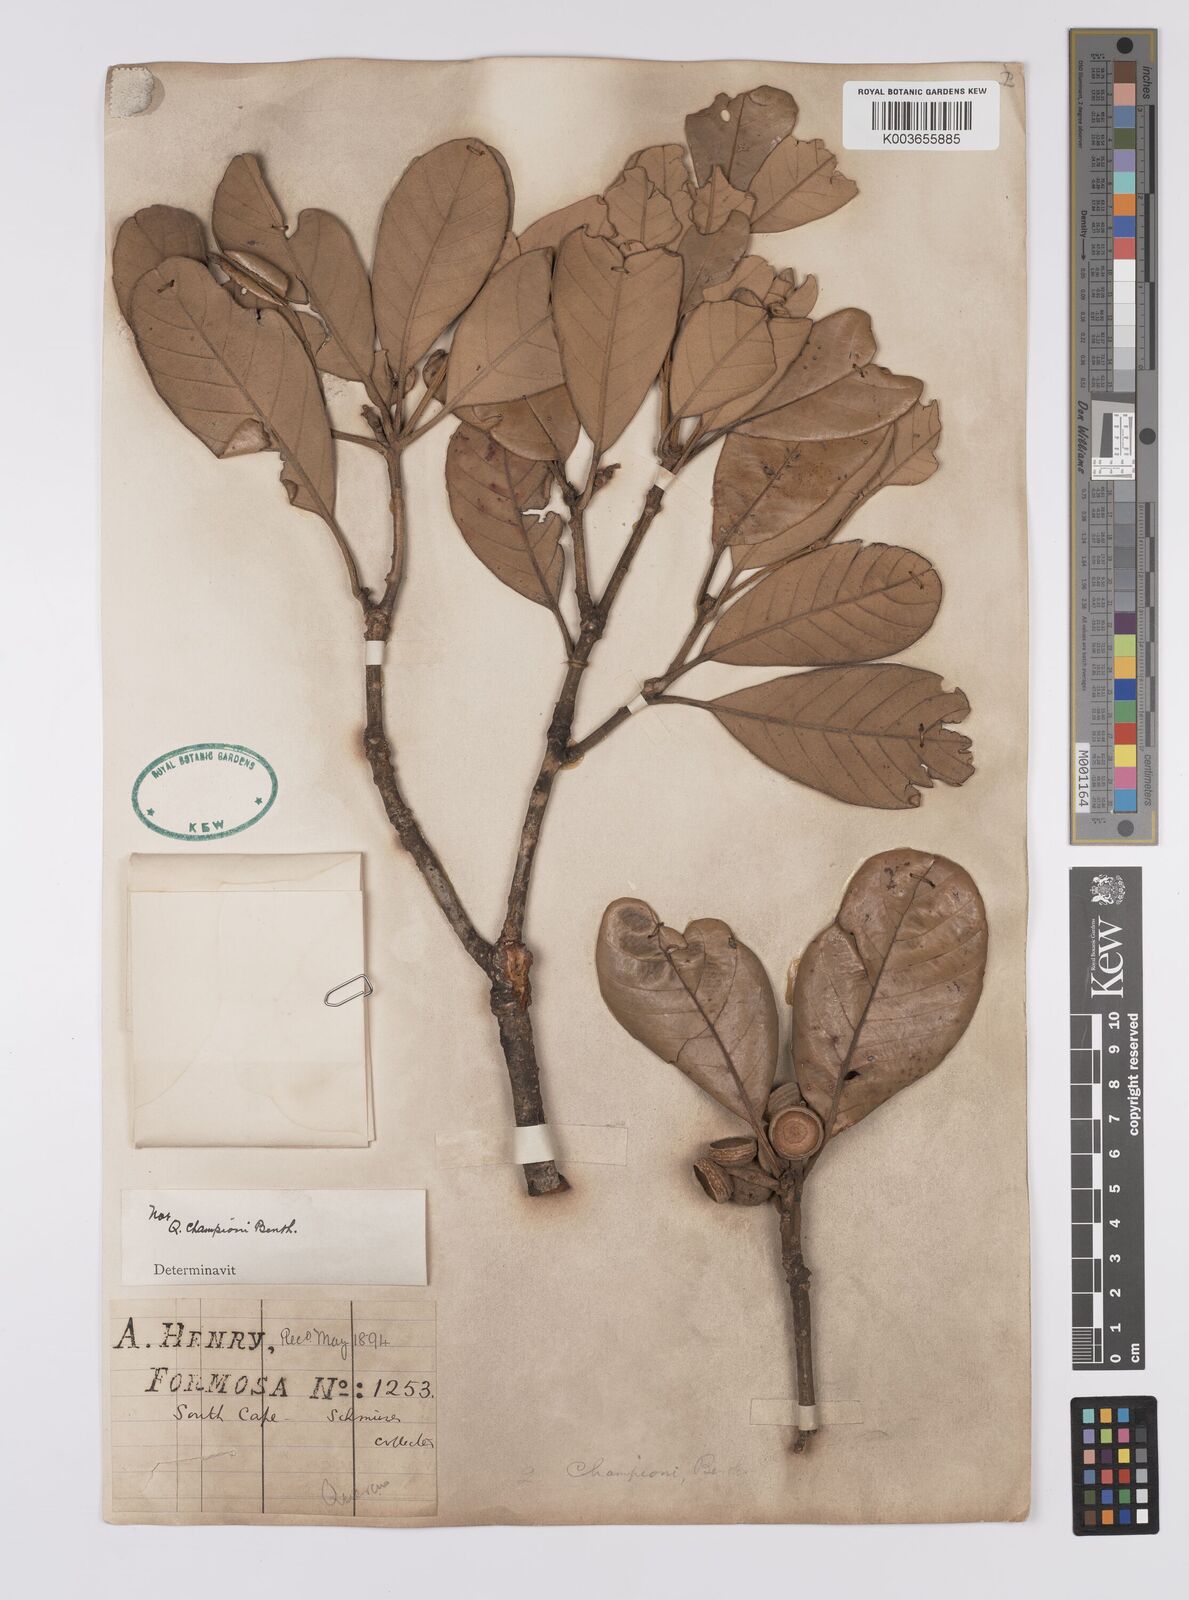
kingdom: Plantae
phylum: Tracheophyta
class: Magnoliopsida
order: Fagales
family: Fagaceae
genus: Quercus
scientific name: Quercus championii
